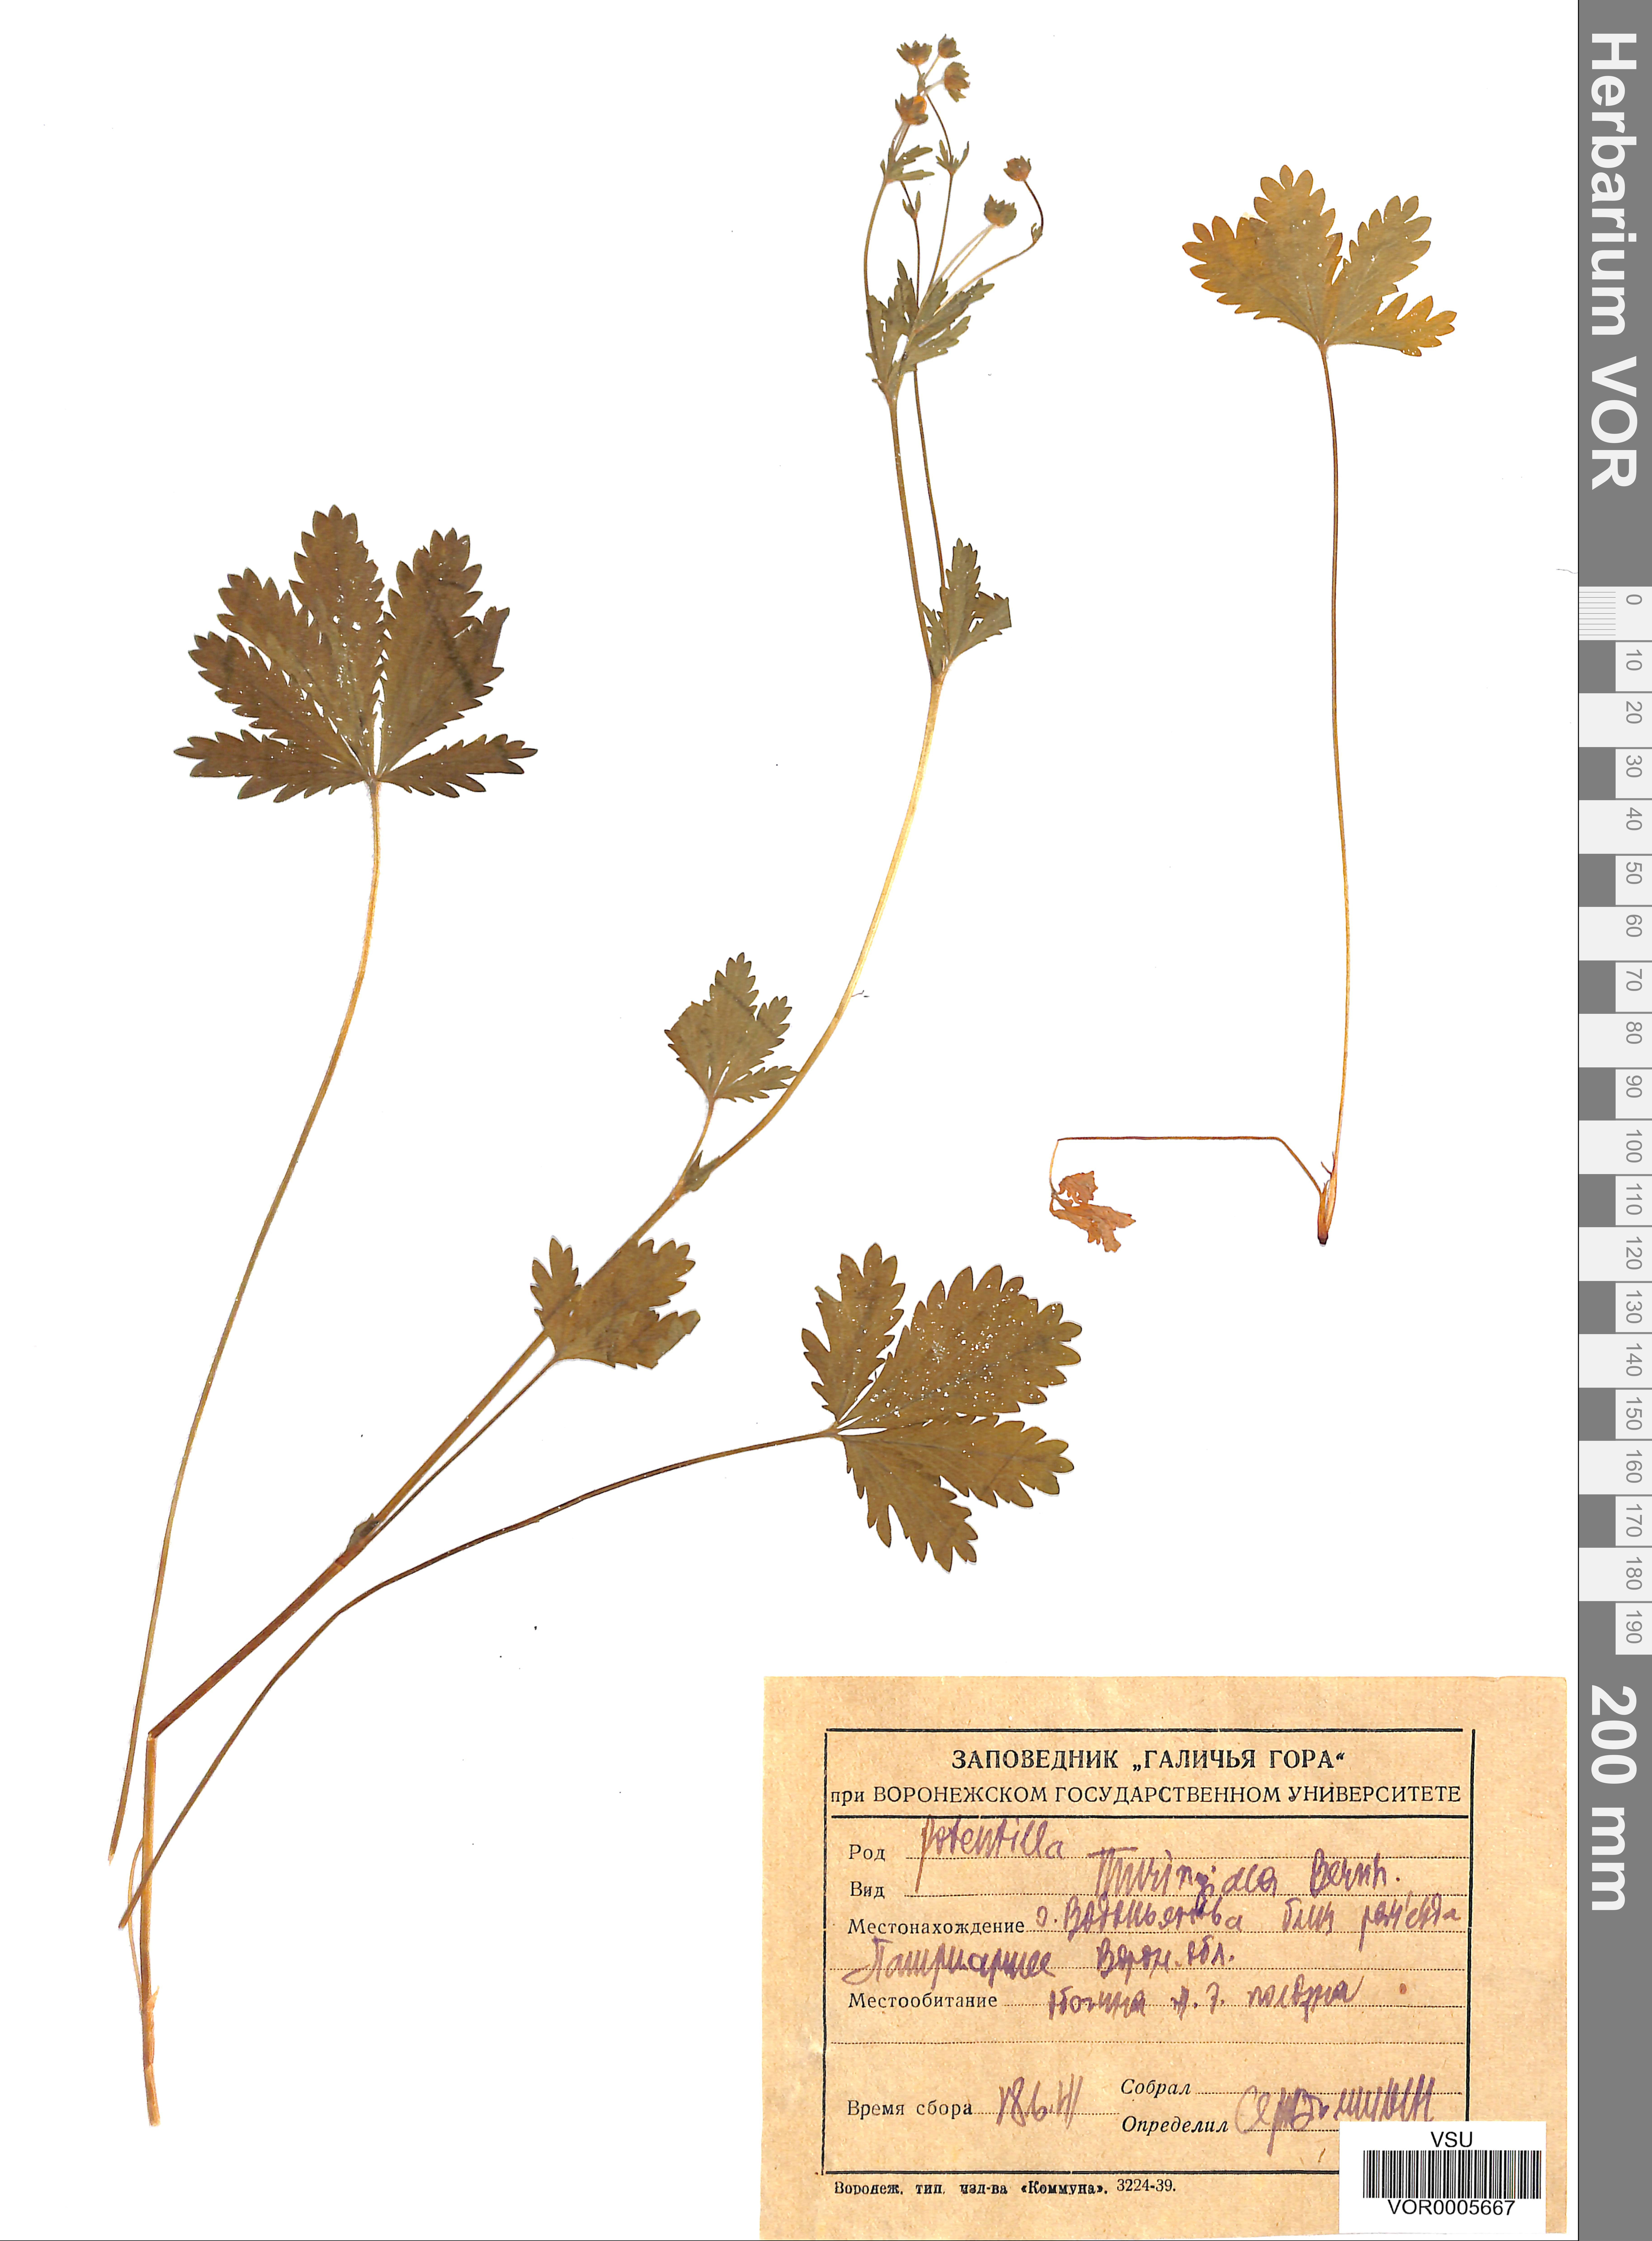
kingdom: Plantae
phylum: Tracheophyta
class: Magnoliopsida
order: Rosales
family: Rosaceae
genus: Potentilla
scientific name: Potentilla thuringiaca
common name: European cinquefoil
